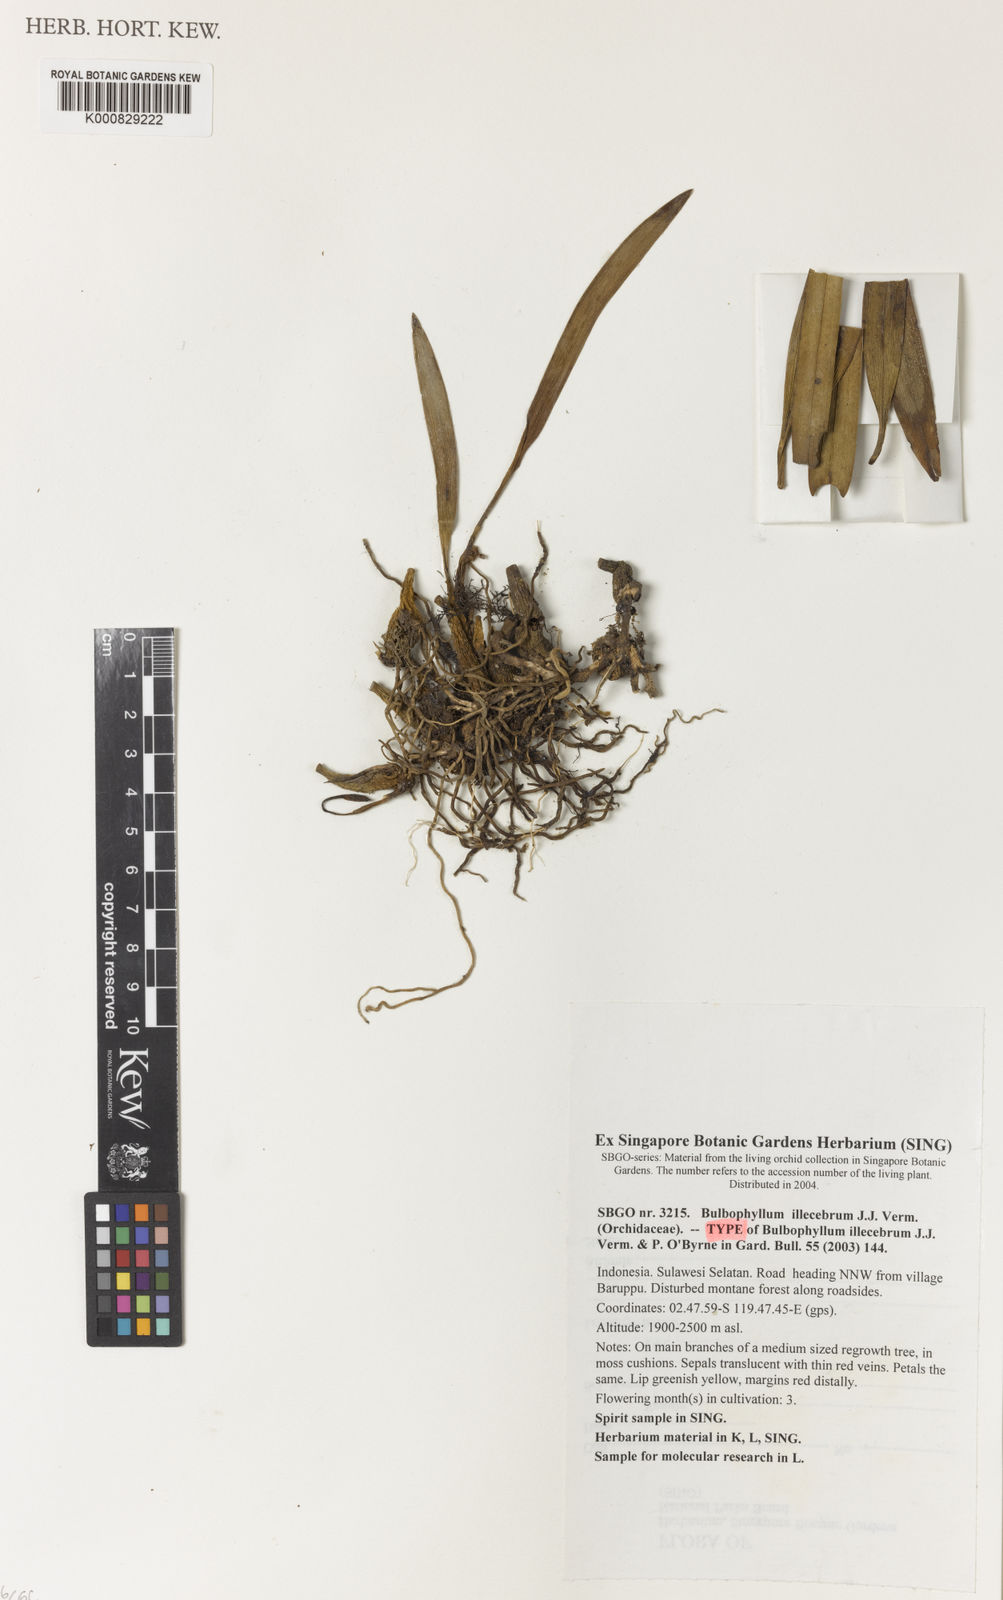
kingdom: Plantae
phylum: Tracheophyta
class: Liliopsida
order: Asparagales
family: Orchidaceae
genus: Bulbophyllum
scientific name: Bulbophyllum illecebrum
